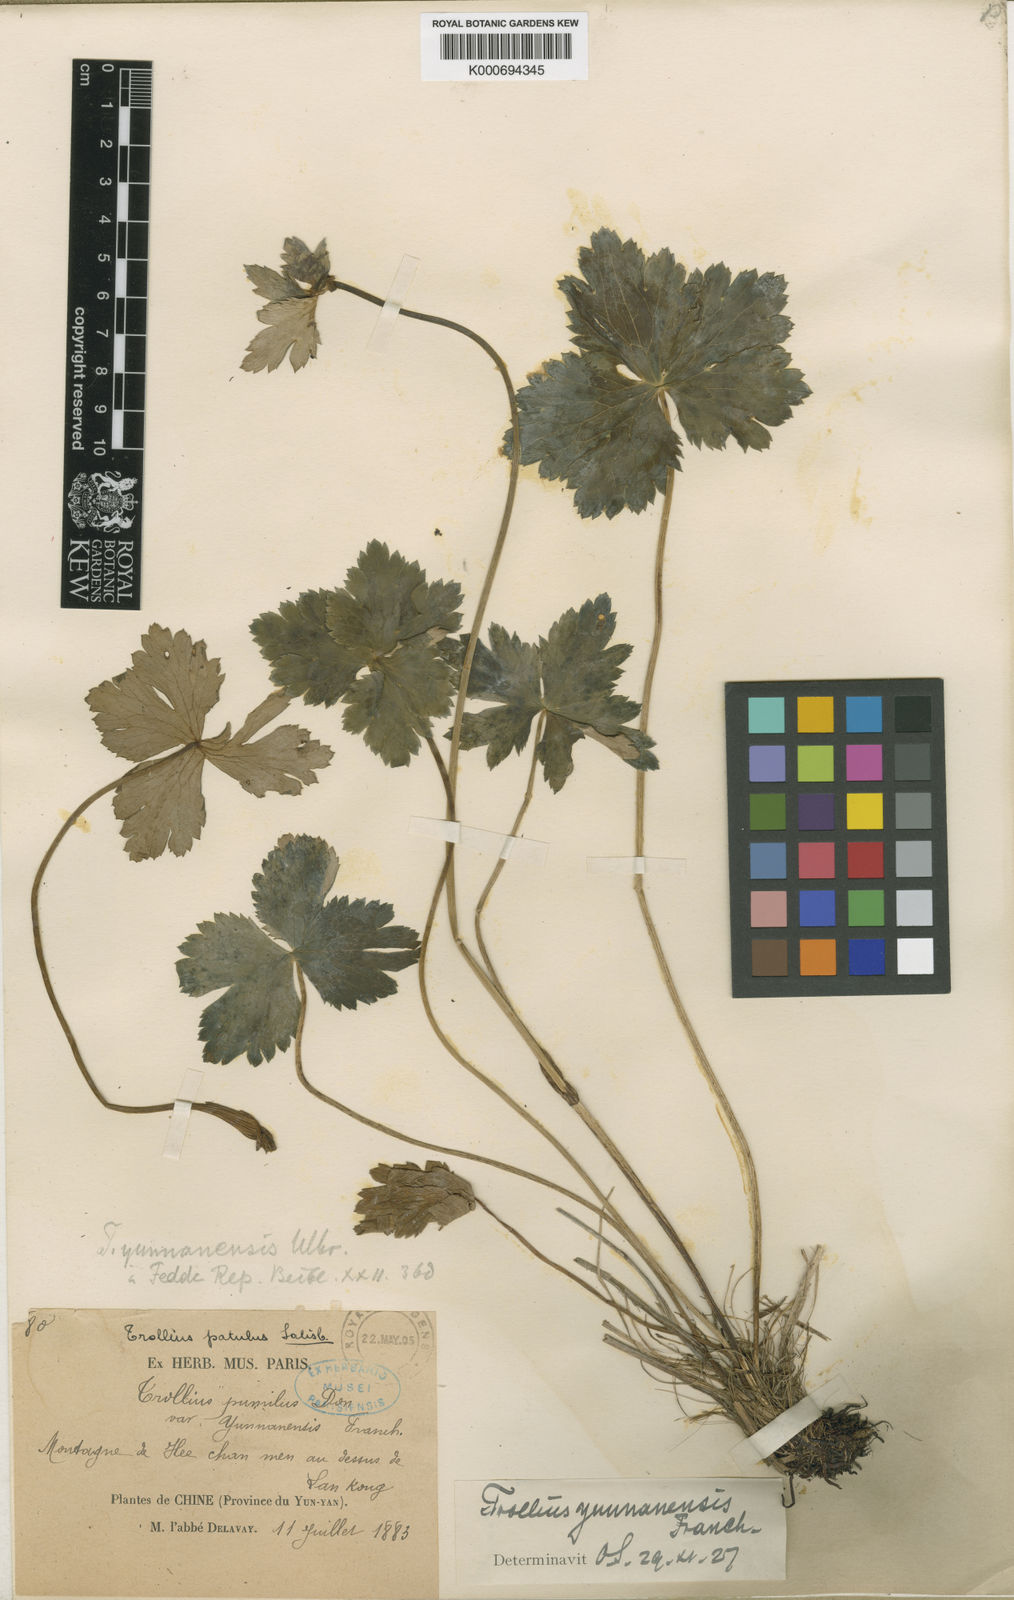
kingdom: Plantae
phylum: Tracheophyta
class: Magnoliopsida
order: Ranunculales
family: Ranunculaceae
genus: Trollius
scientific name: Trollius yunnanensis
